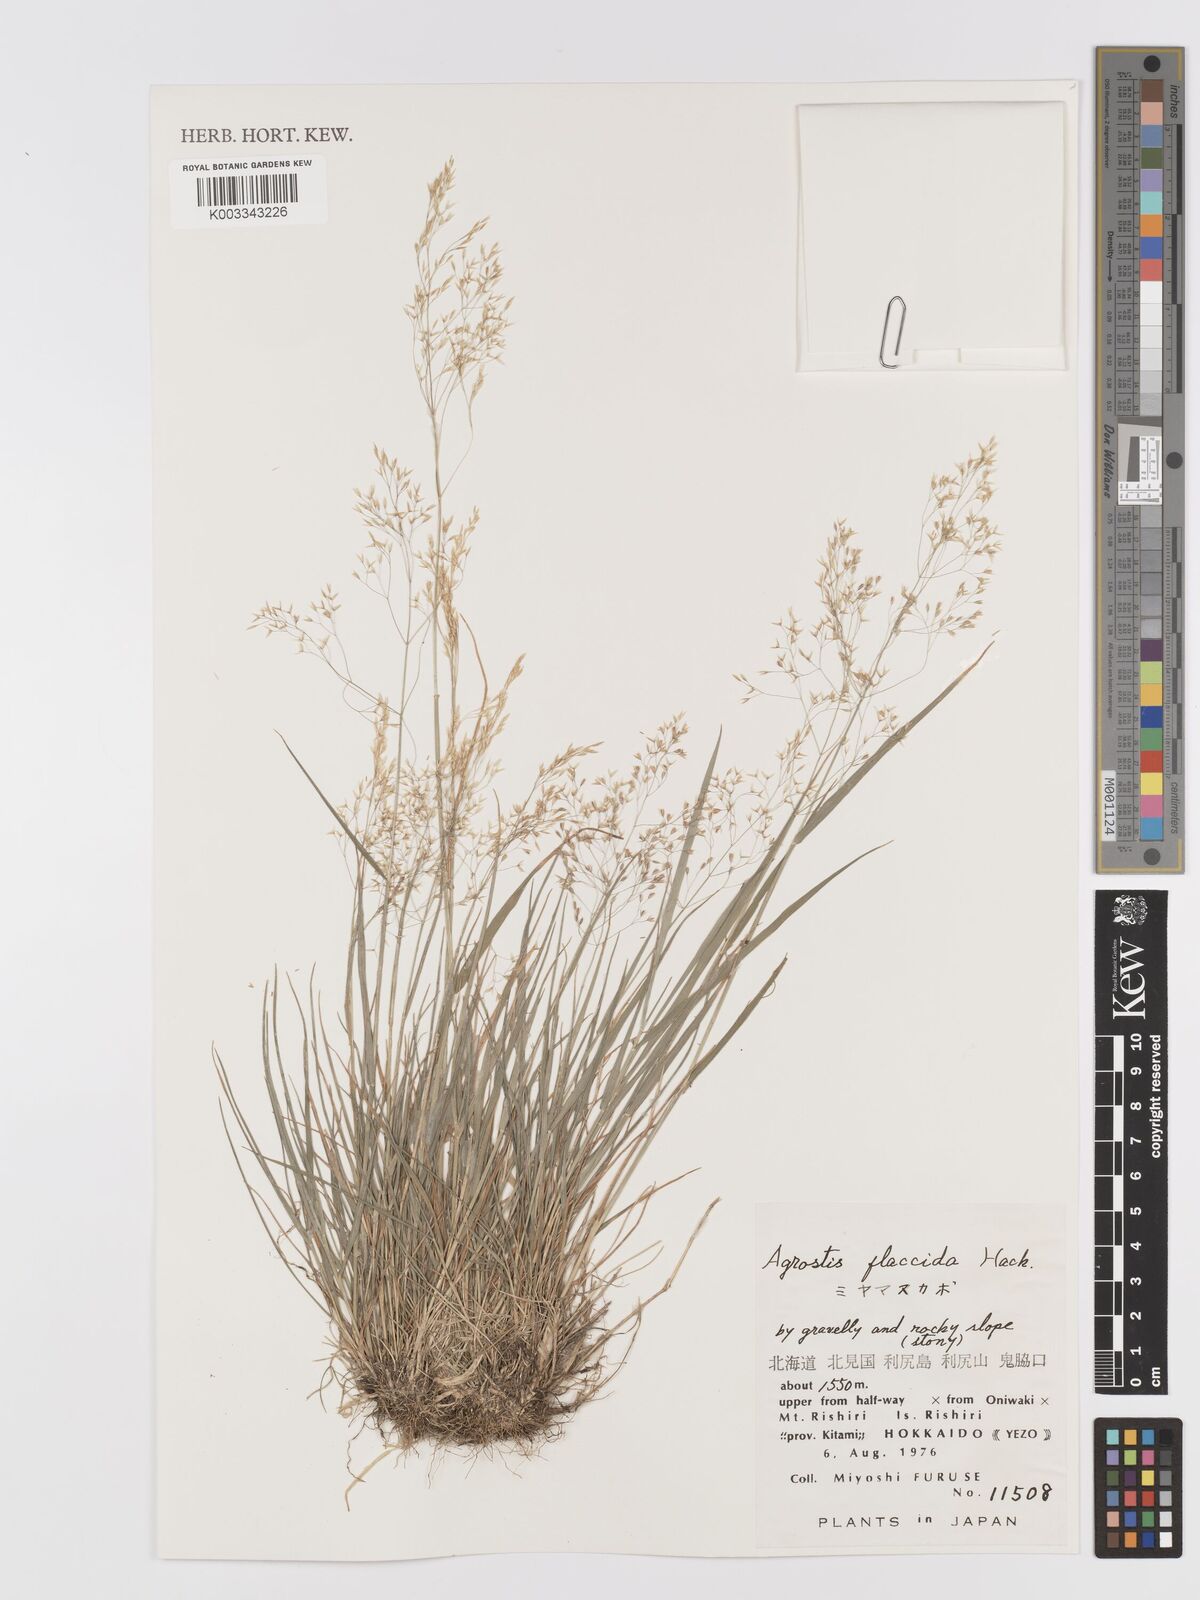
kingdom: Plantae
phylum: Tracheophyta
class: Liliopsida
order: Poales
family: Poaceae
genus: Agrostis
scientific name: Agrostis flaccida
